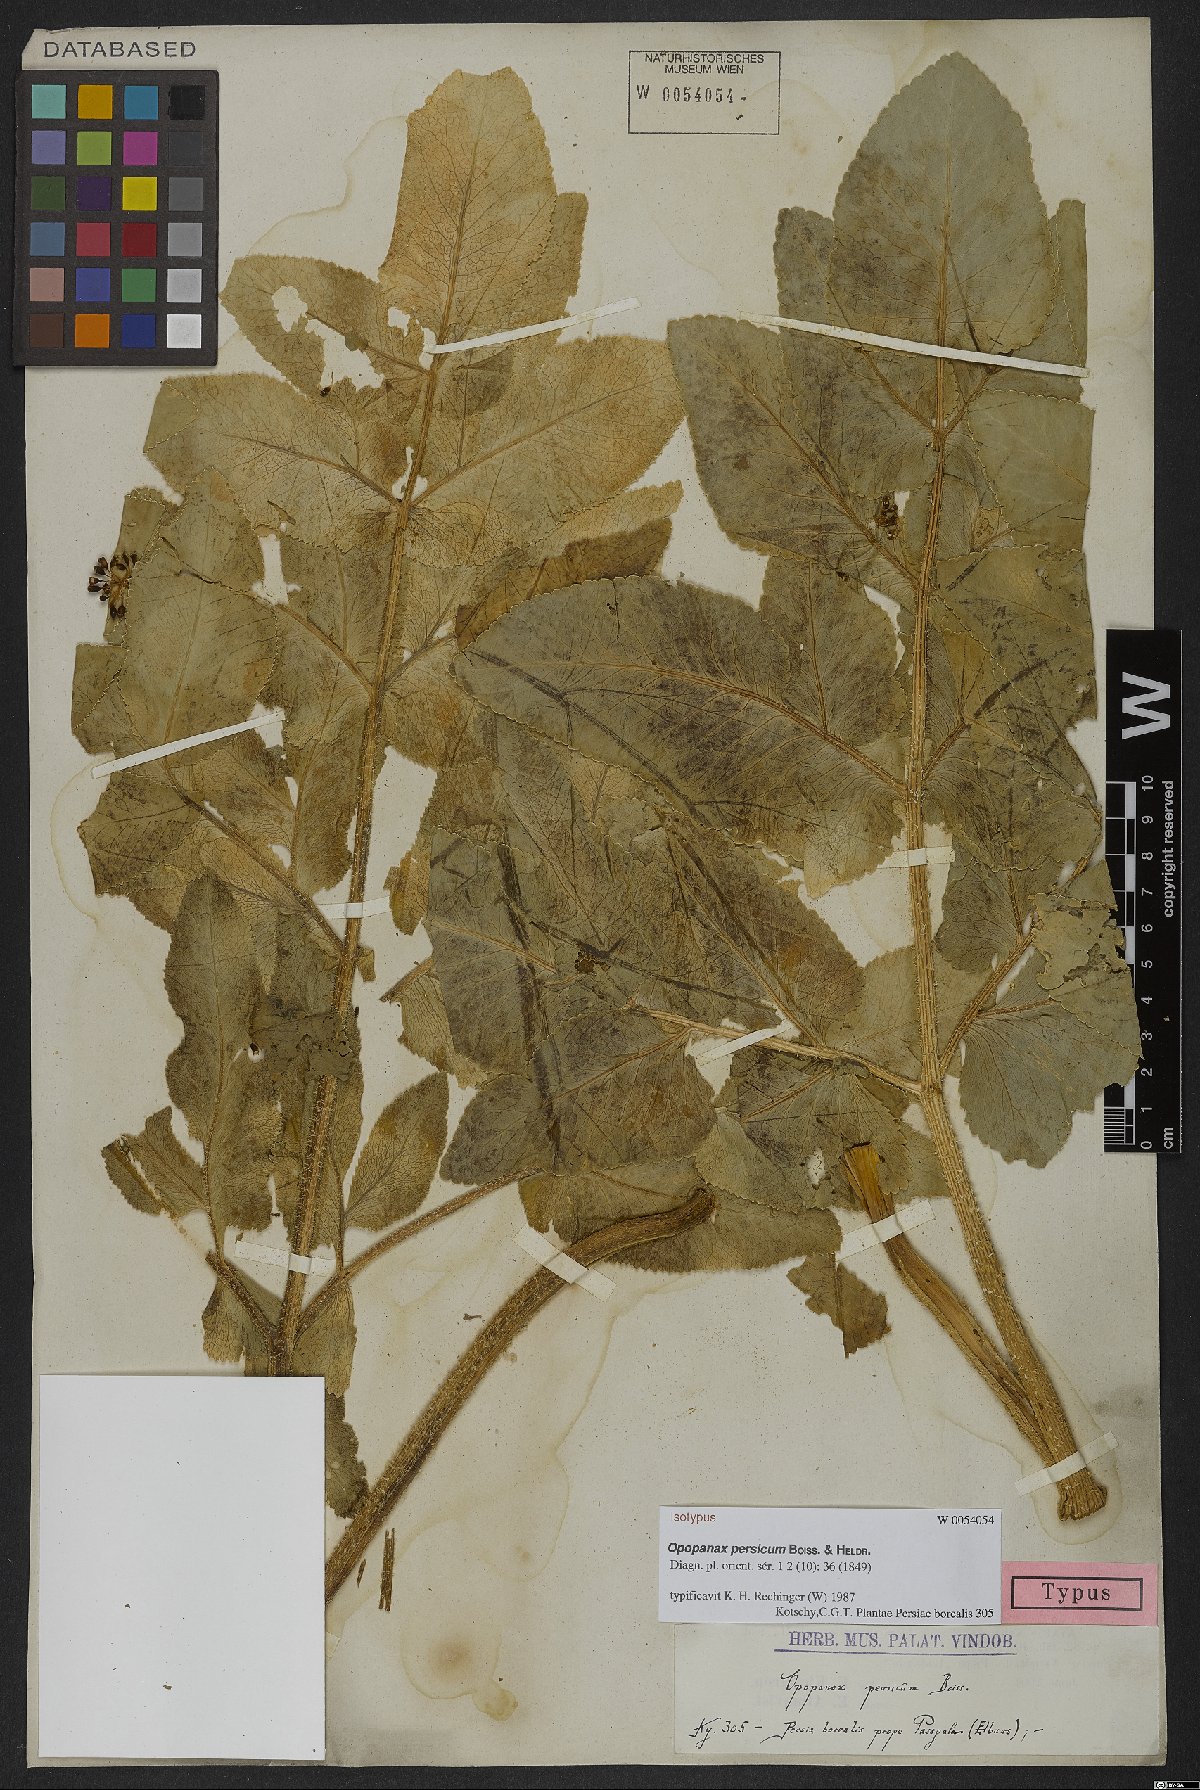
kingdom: Plantae
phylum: Tracheophyta
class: Magnoliopsida
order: Apiales
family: Apiaceae
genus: Opopanax
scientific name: Opopanax persicus
